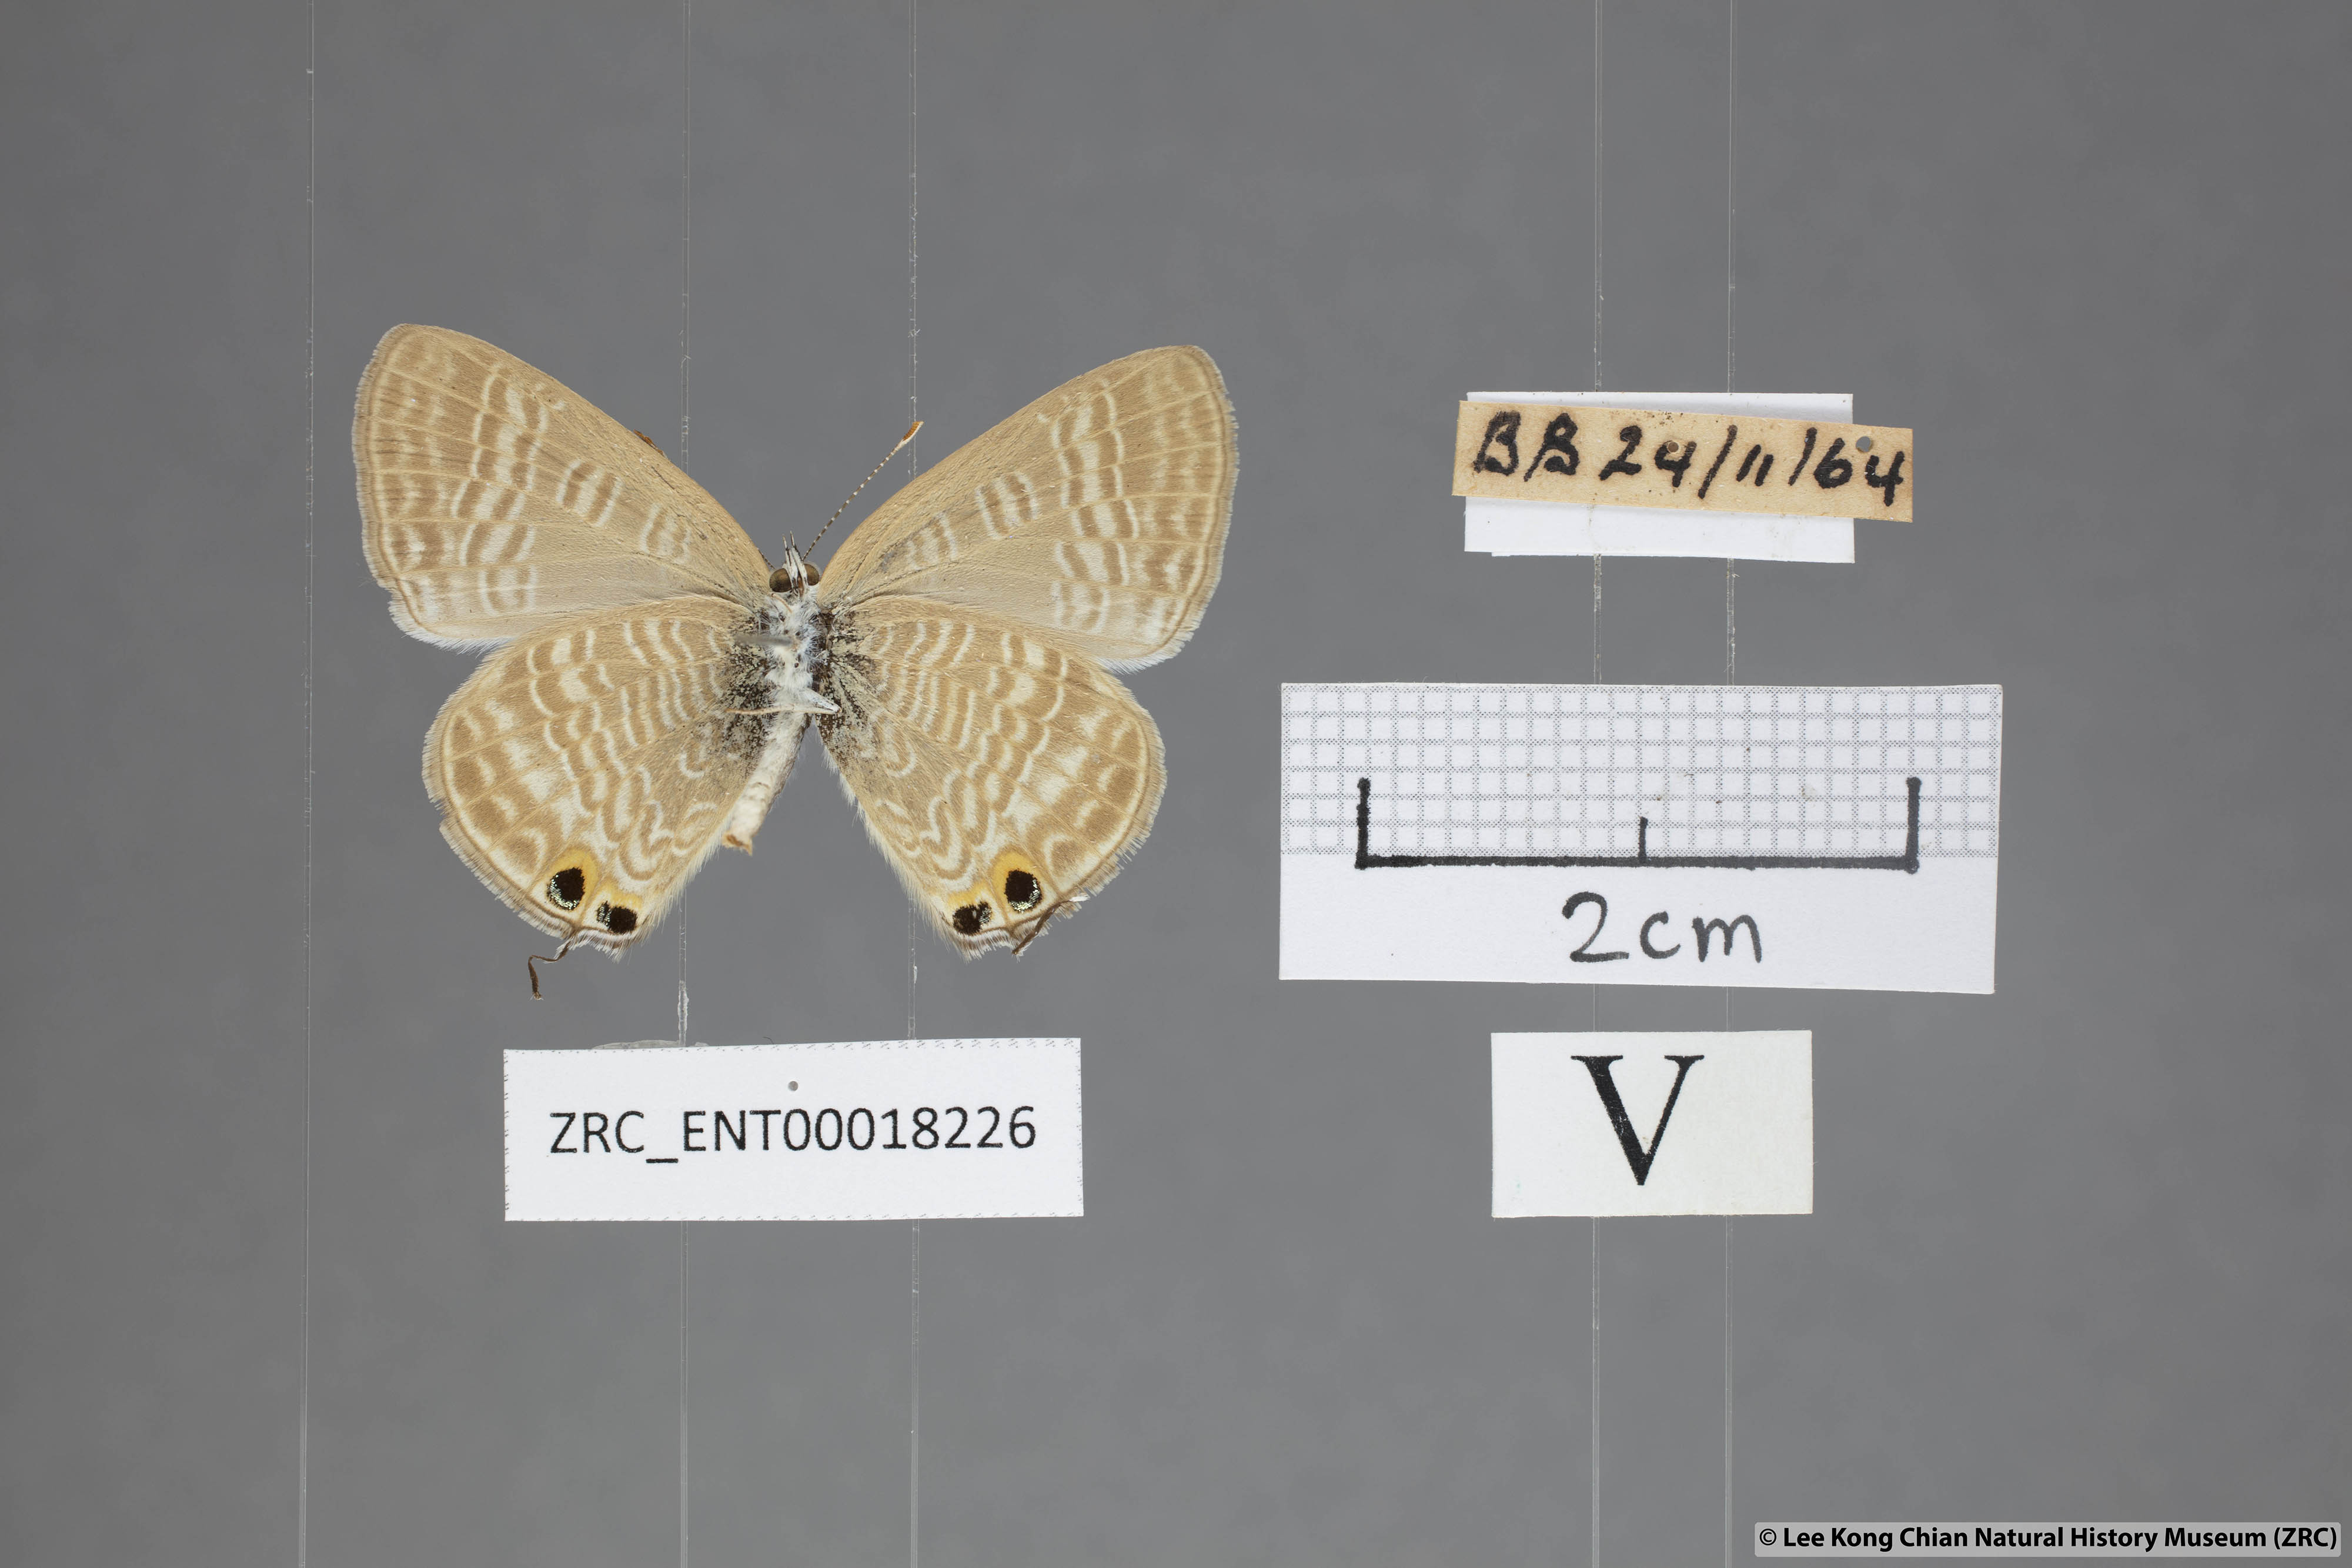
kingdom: Animalia
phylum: Arthropoda
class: Insecta
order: Lepidoptera
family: Lycaenidae
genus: Lampides
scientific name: Lampides boeticus
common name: Long-tailed blue
